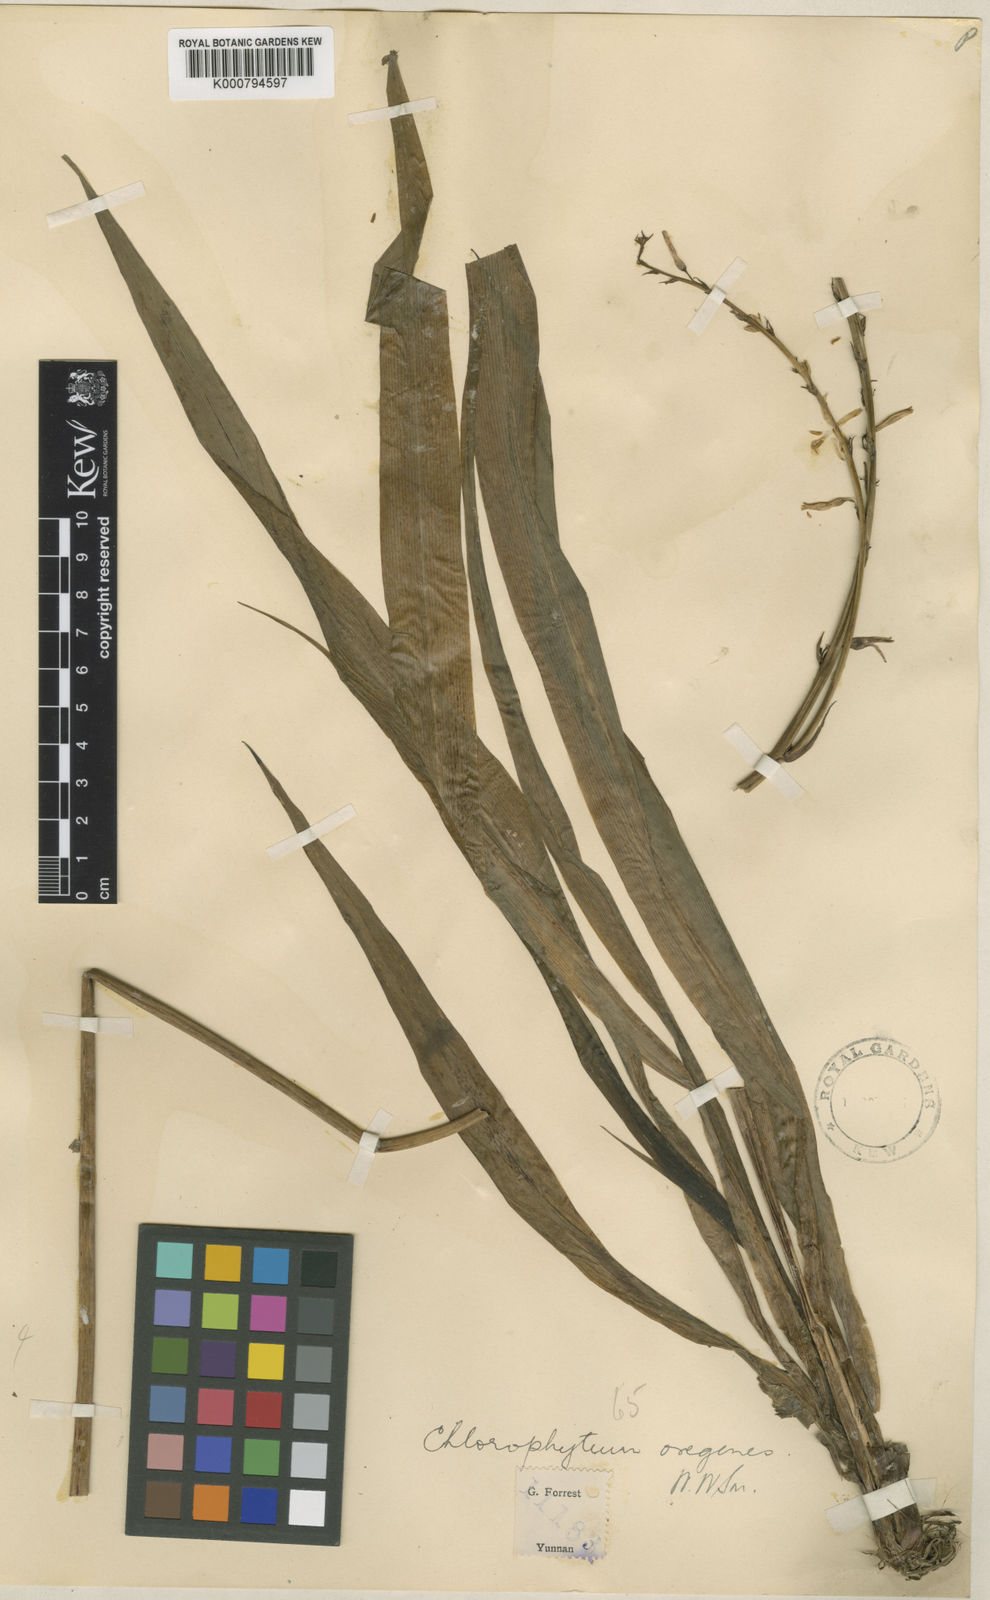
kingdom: Plantae
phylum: Tracheophyta
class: Liliopsida
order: Asparagales
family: Asparagaceae
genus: Chlorophytum
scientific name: Chlorophytum nepalense
